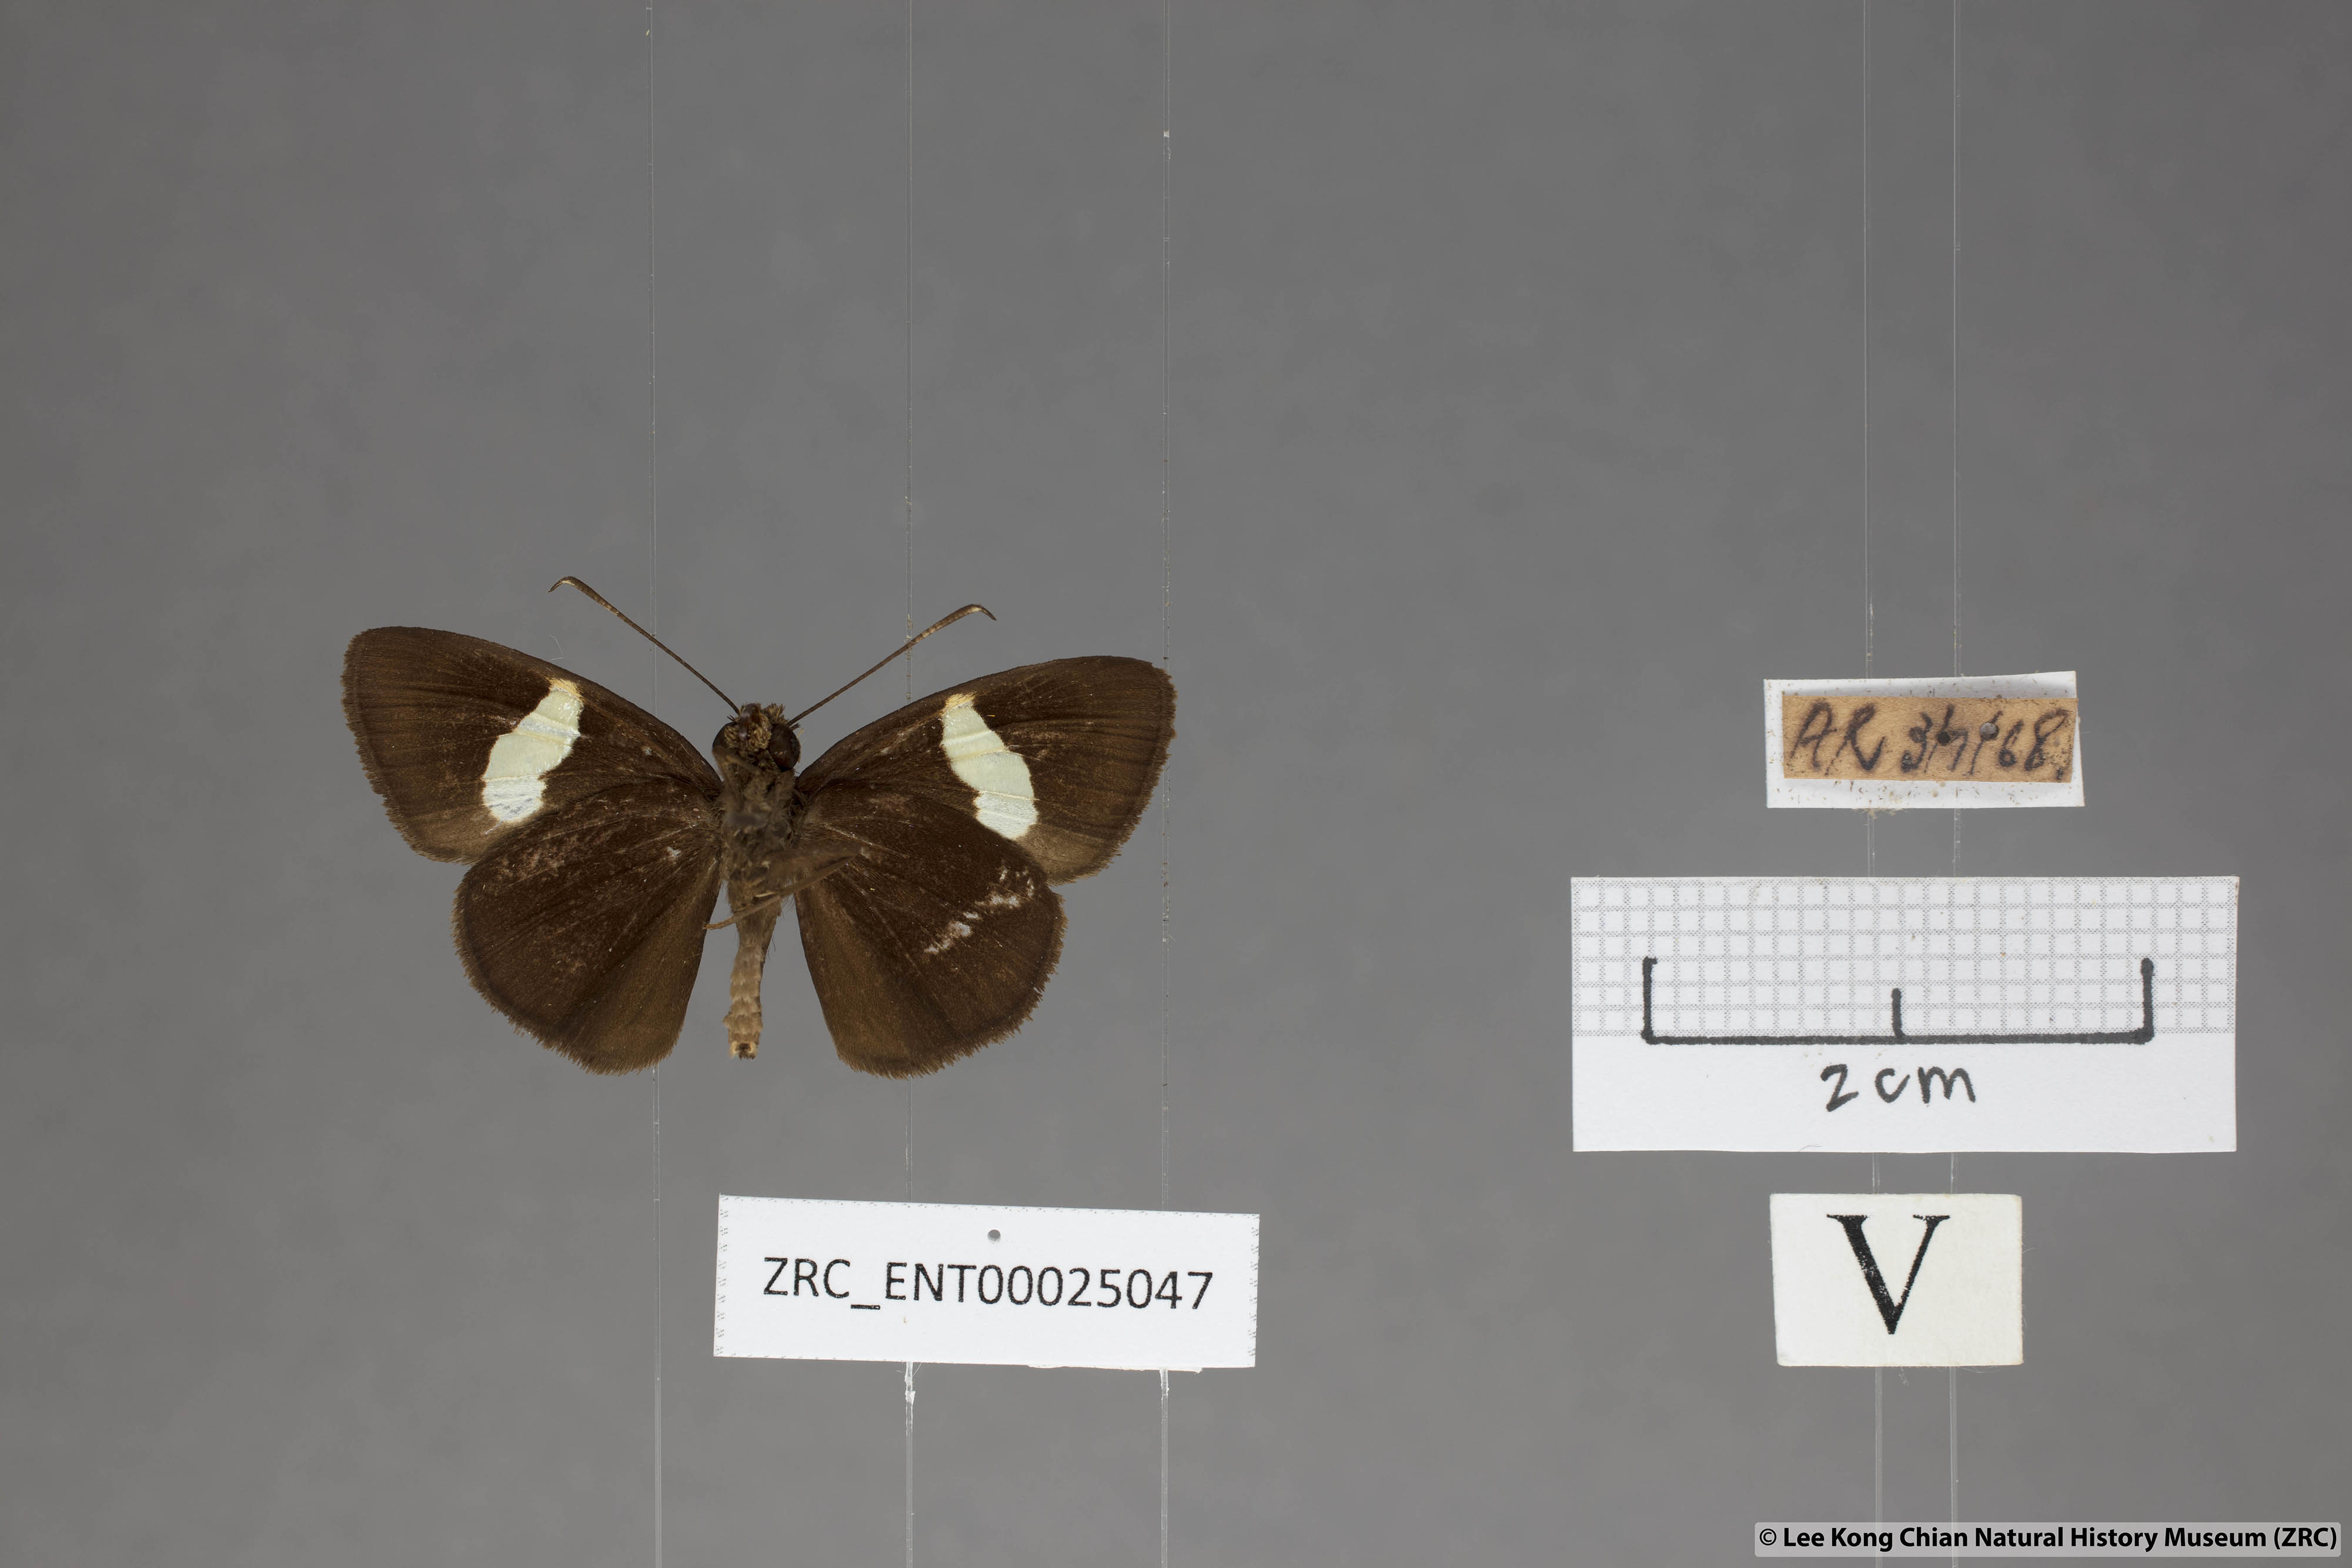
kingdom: Animalia
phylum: Arthropoda
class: Insecta
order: Lepidoptera
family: Hesperiidae
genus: Notocrypta
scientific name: Notocrypta pria
